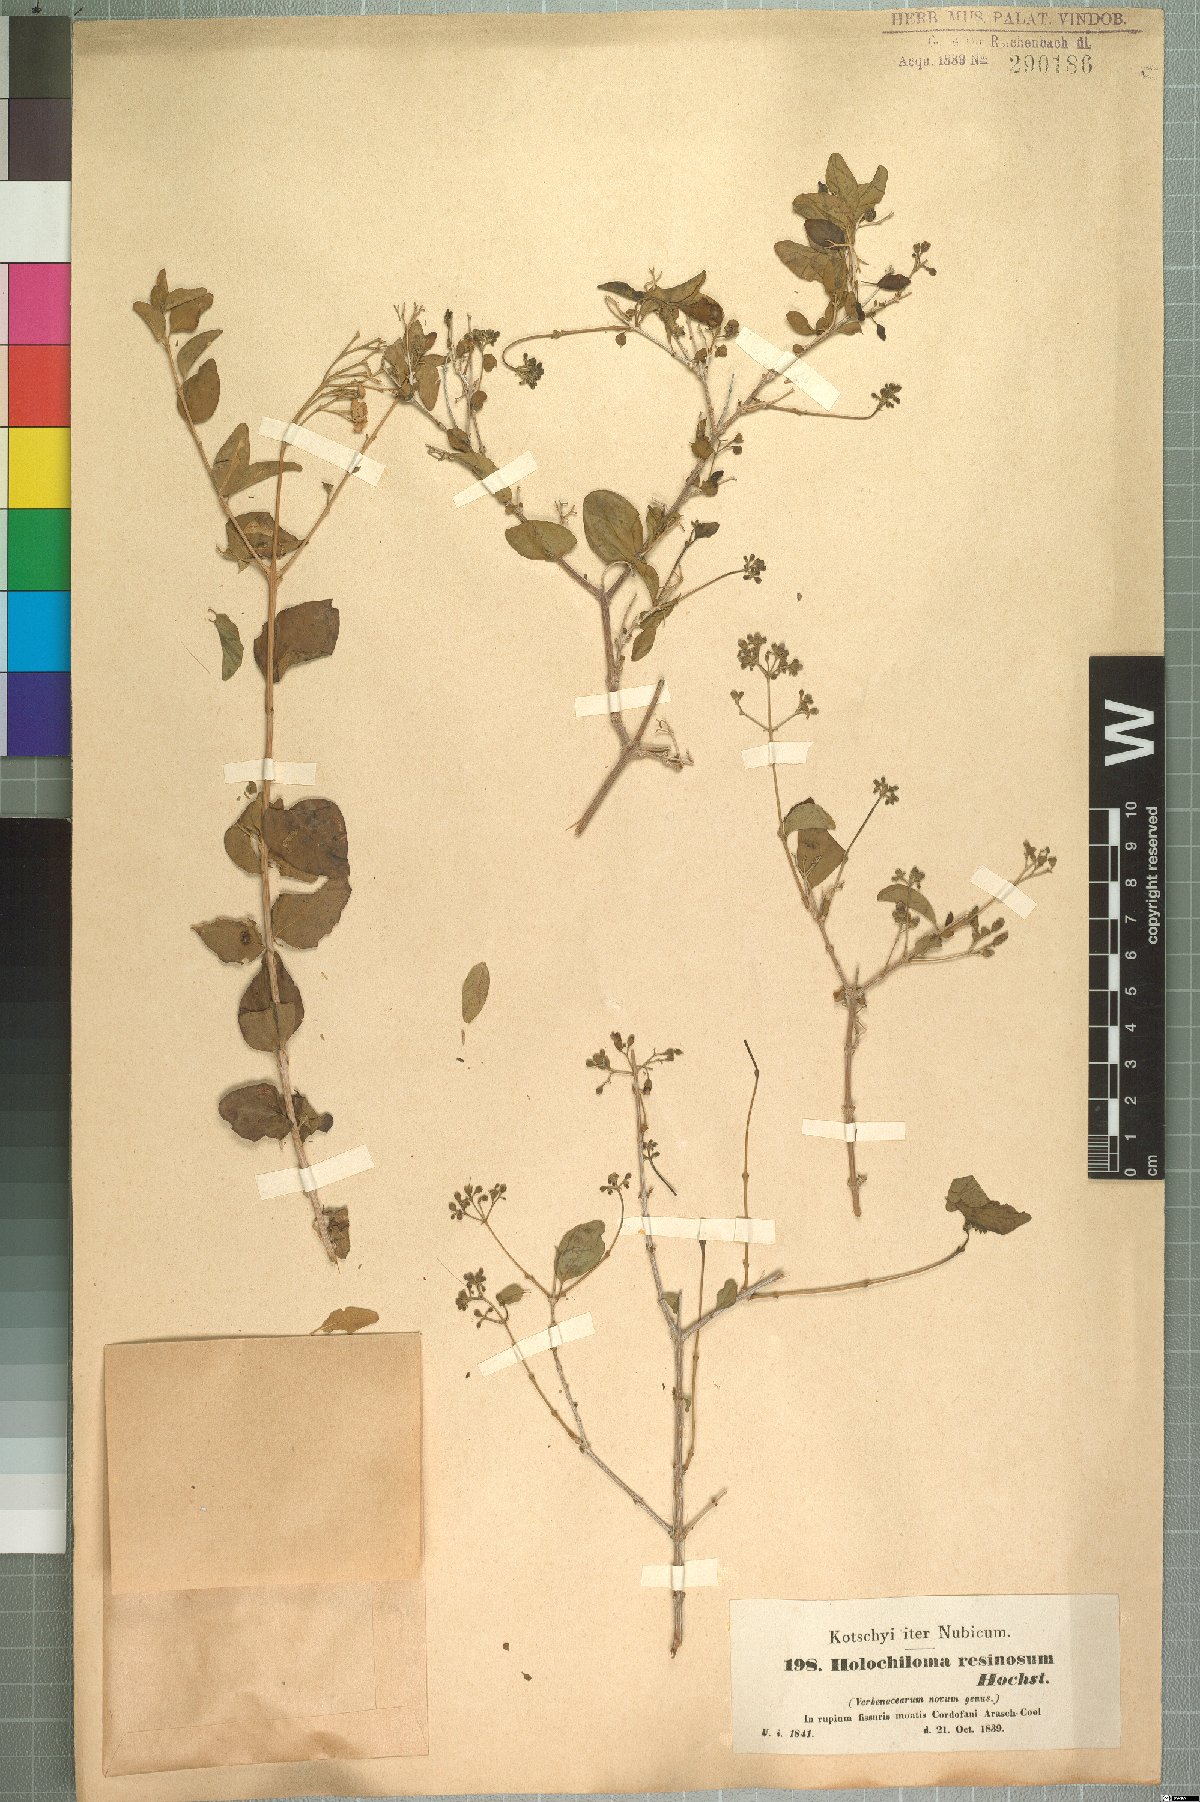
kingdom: Plantae
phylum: Tracheophyta
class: Magnoliopsida
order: Lamiales
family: Lamiaceae
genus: Premna
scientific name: Premna resinosa
